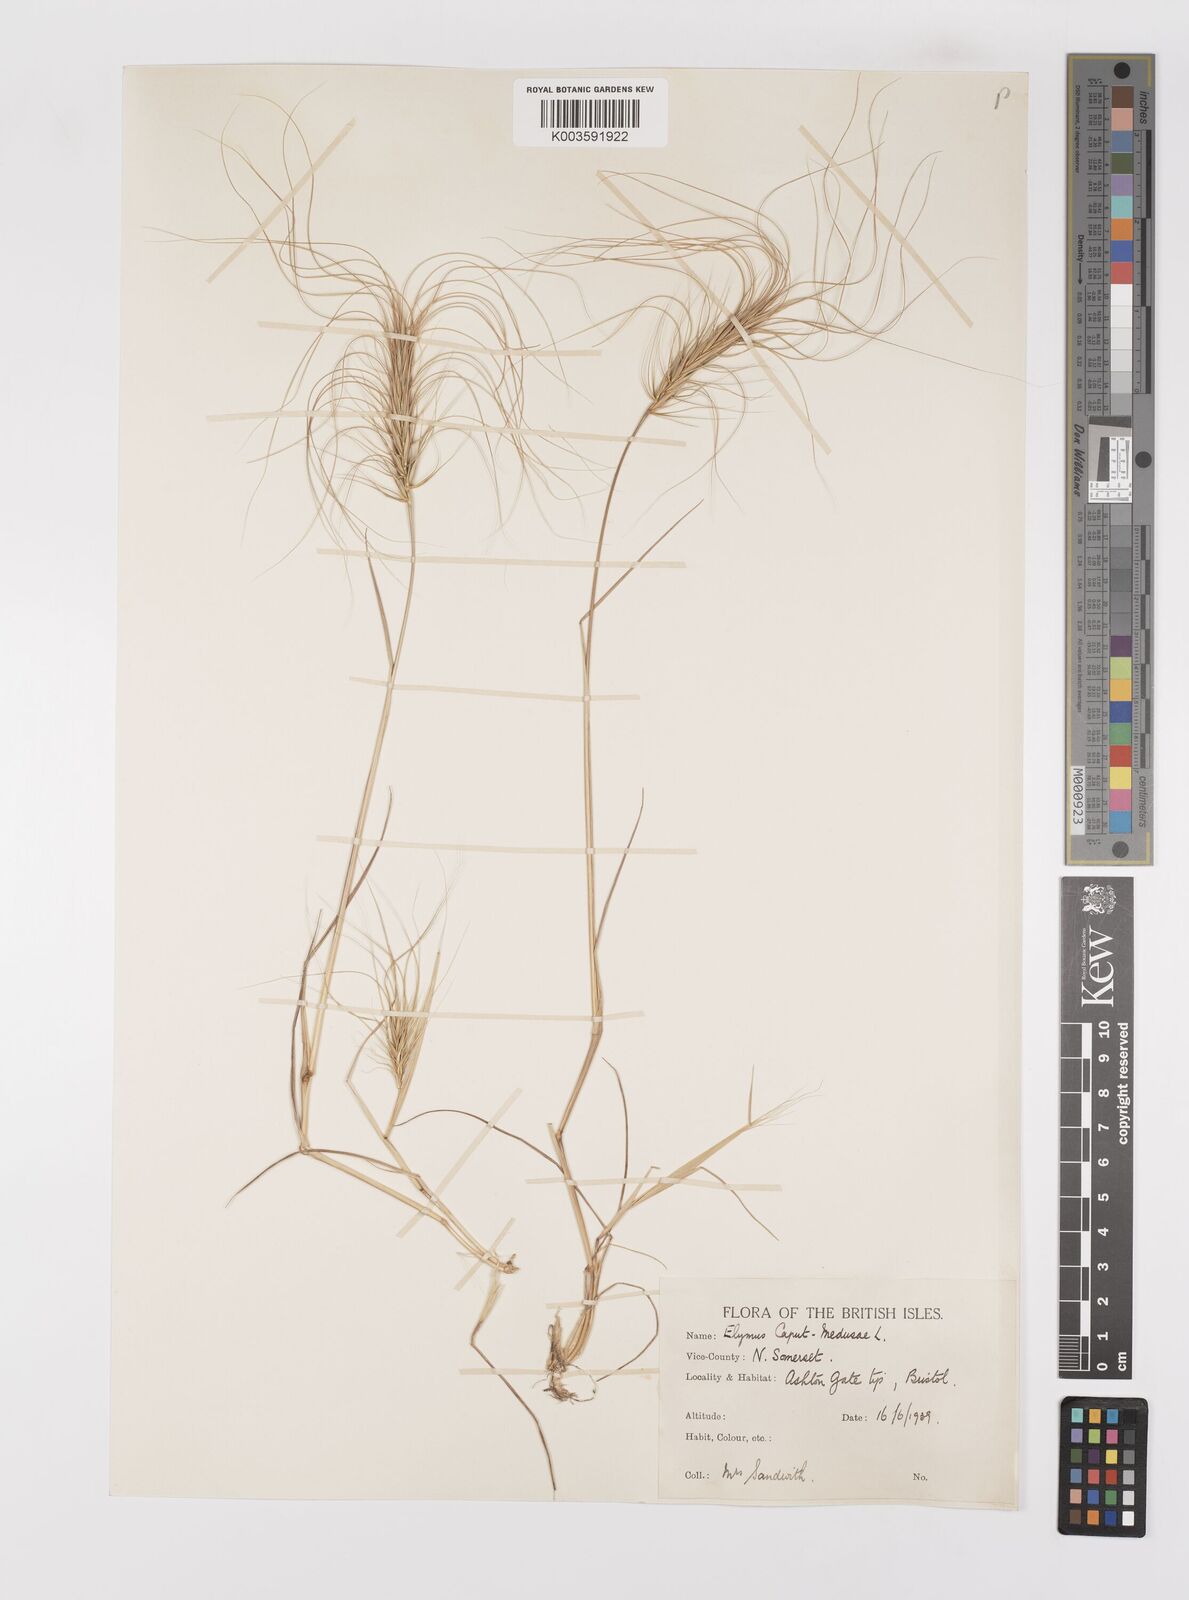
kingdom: Plantae
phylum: Tracheophyta
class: Liliopsida
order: Poales
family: Poaceae
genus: Taeniatherum
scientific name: Taeniatherum caput-medusae
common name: Medusahead
